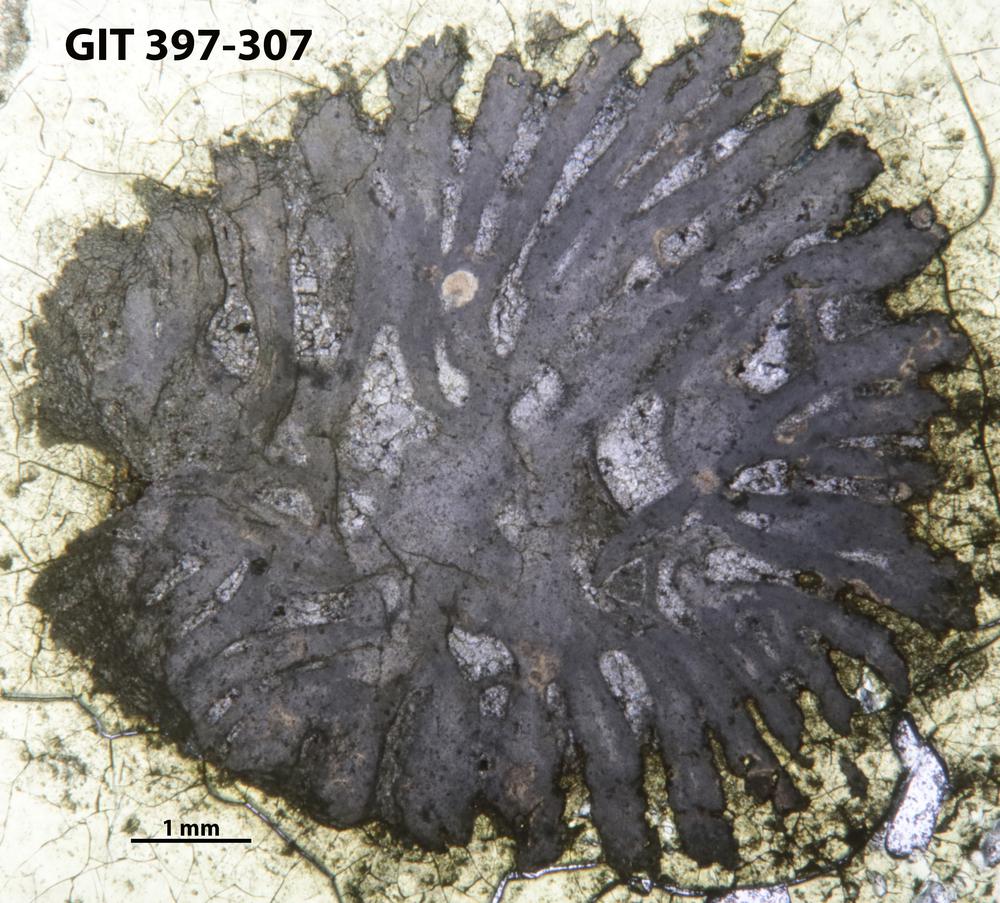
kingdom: Animalia
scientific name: Animalia
